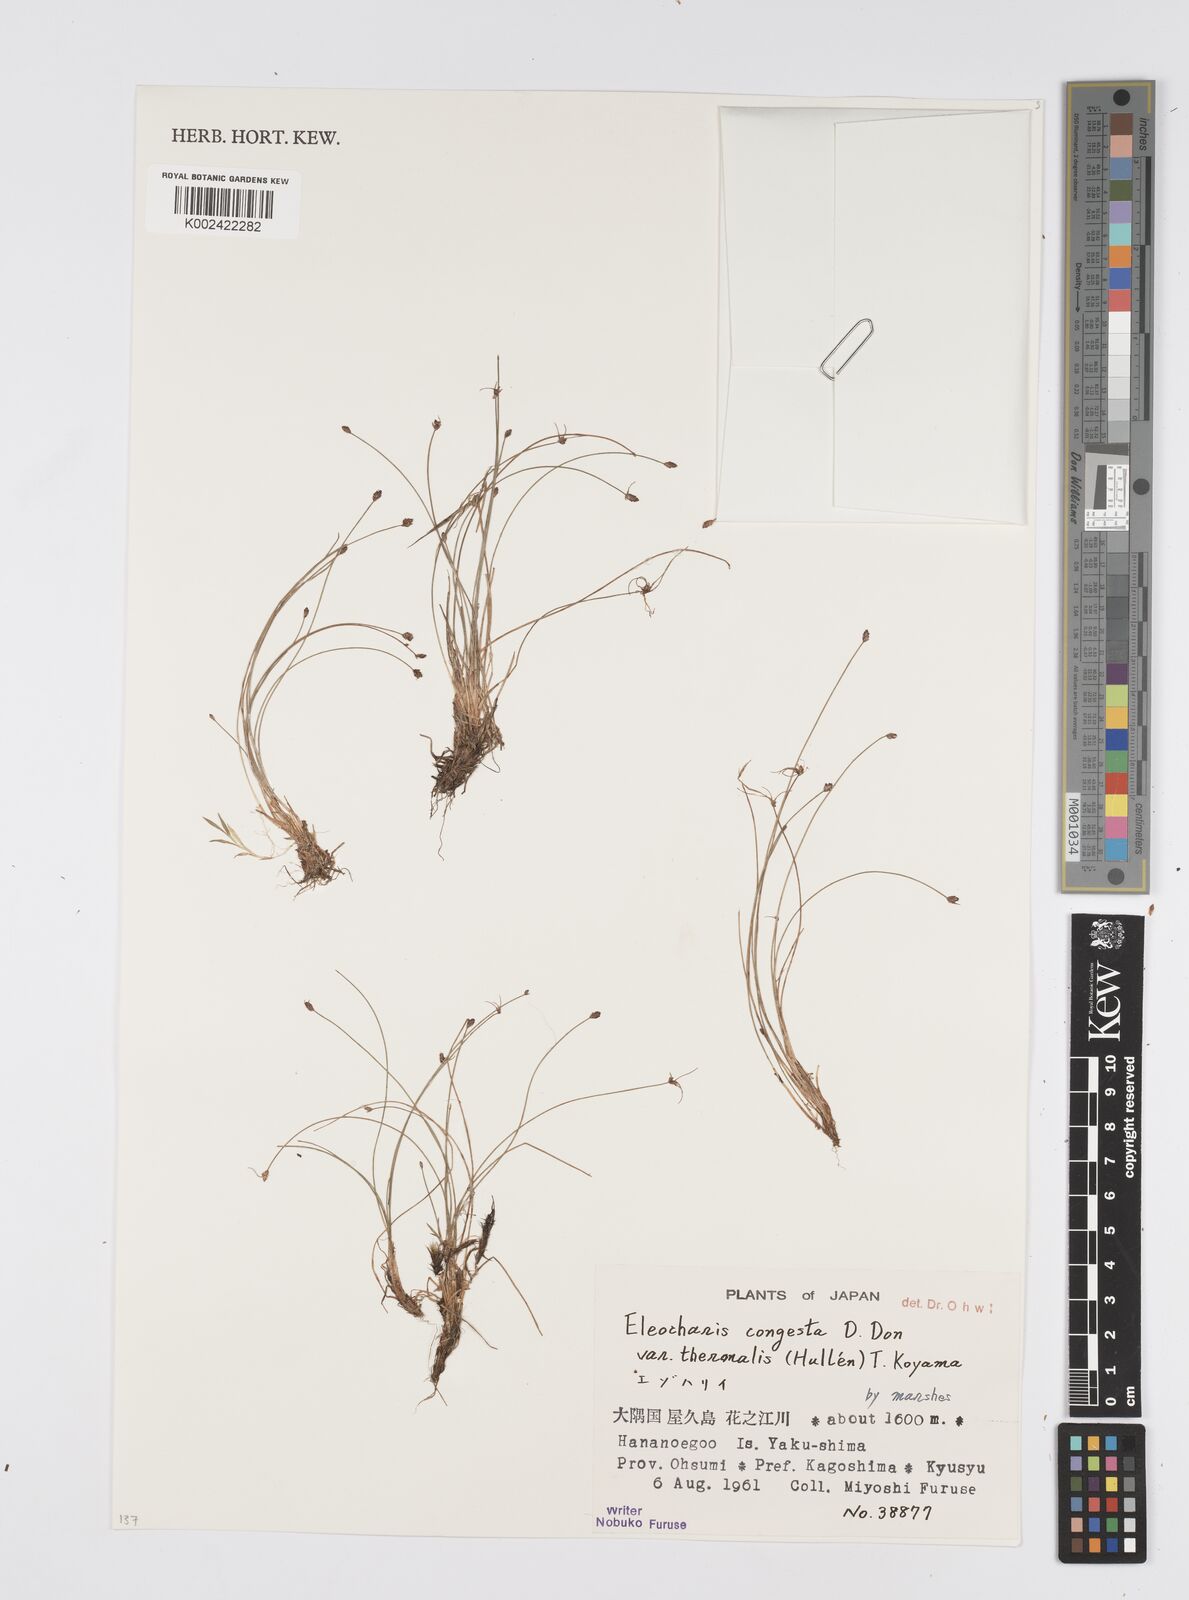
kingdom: Plantae
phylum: Tracheophyta
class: Liliopsida
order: Poales
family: Cyperaceae
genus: Eleocharis
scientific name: Eleocharis congesta
